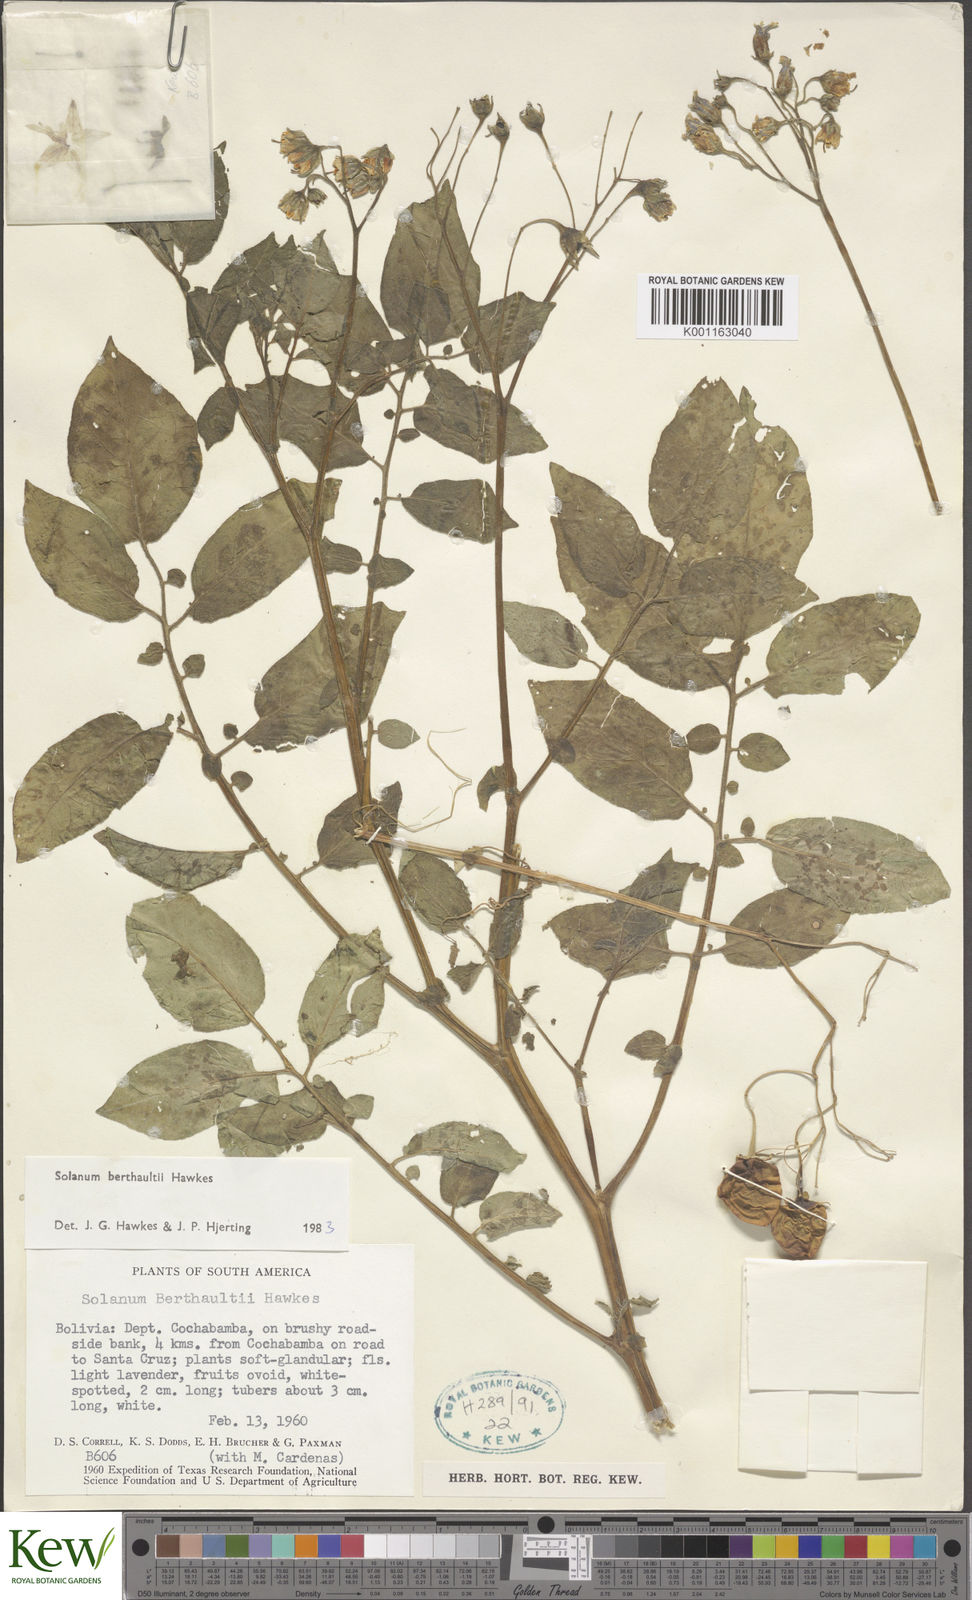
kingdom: Plantae
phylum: Tracheophyta
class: Magnoliopsida
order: Solanales
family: Solanaceae
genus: Solanum
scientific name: Solanum berthaultii
